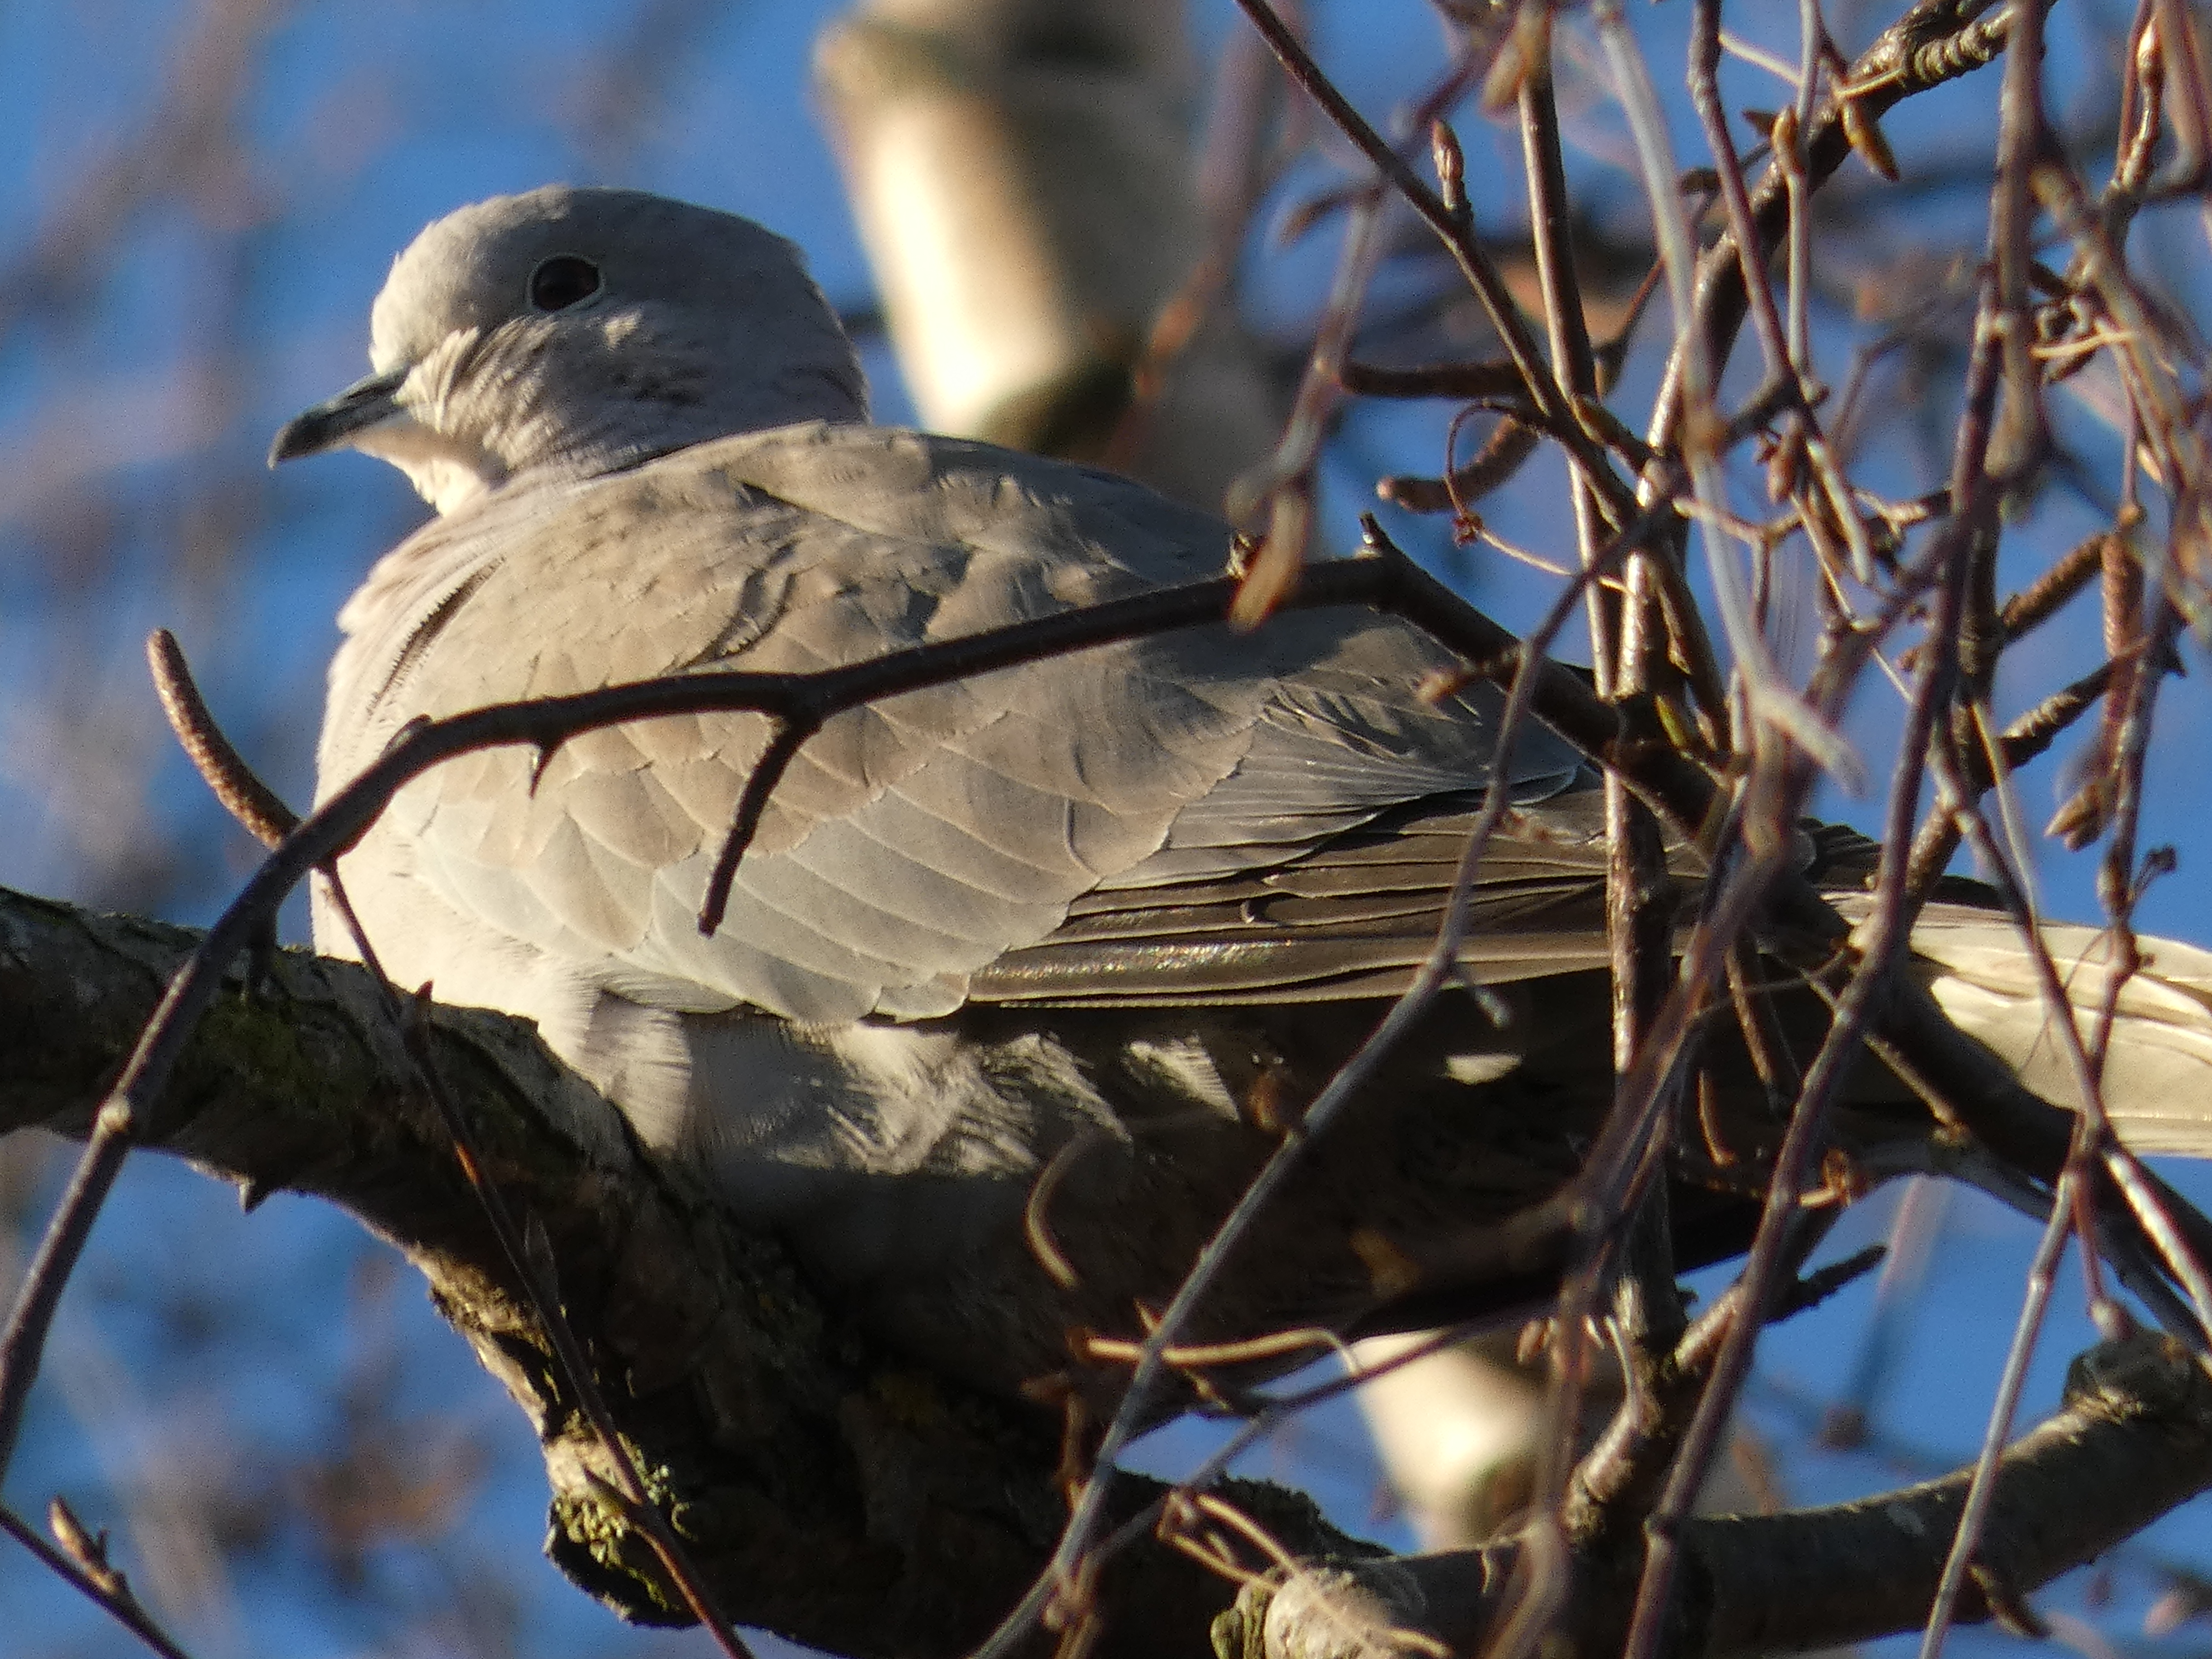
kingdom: Animalia
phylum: Chordata
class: Aves
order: Columbiformes
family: Columbidae
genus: Streptopelia
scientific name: Streptopelia decaocto
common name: Tyrkerdue
